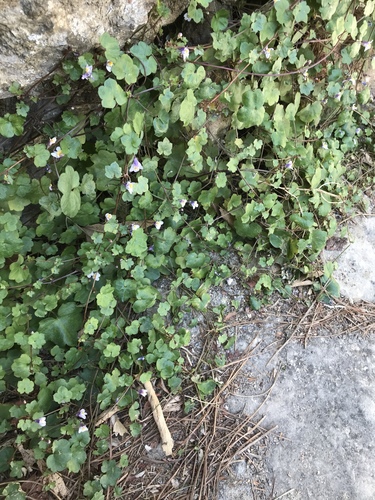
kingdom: Plantae
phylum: Tracheophyta
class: Magnoliopsida
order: Lamiales
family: Plantaginaceae
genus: Cymbalaria
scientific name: Cymbalaria muralis
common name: Ivy-leaved toadflax
